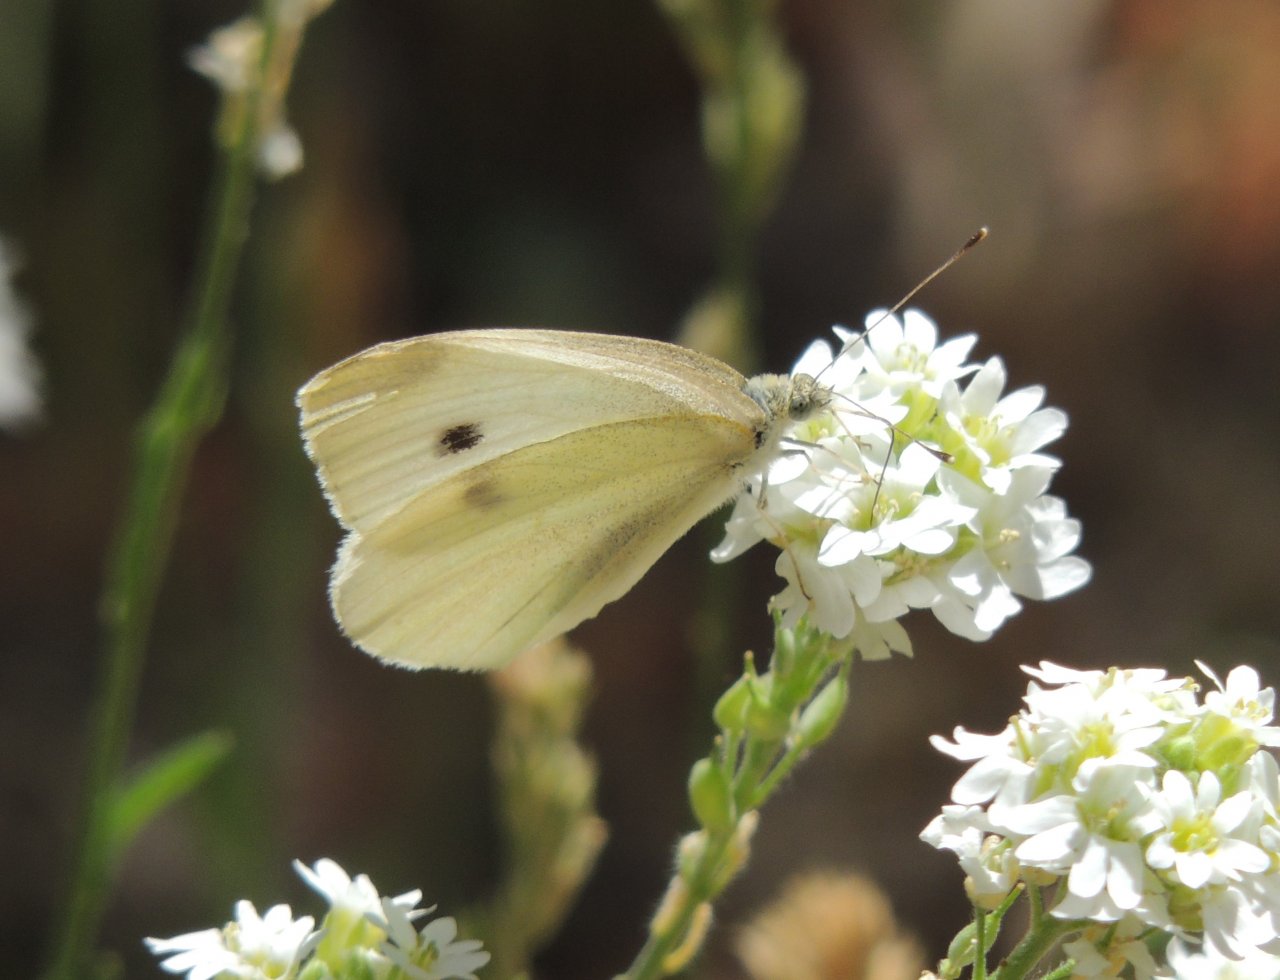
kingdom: Animalia
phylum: Arthropoda
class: Insecta
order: Lepidoptera
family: Pieridae
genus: Pieris
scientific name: Pieris rapae
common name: Cabbage White
